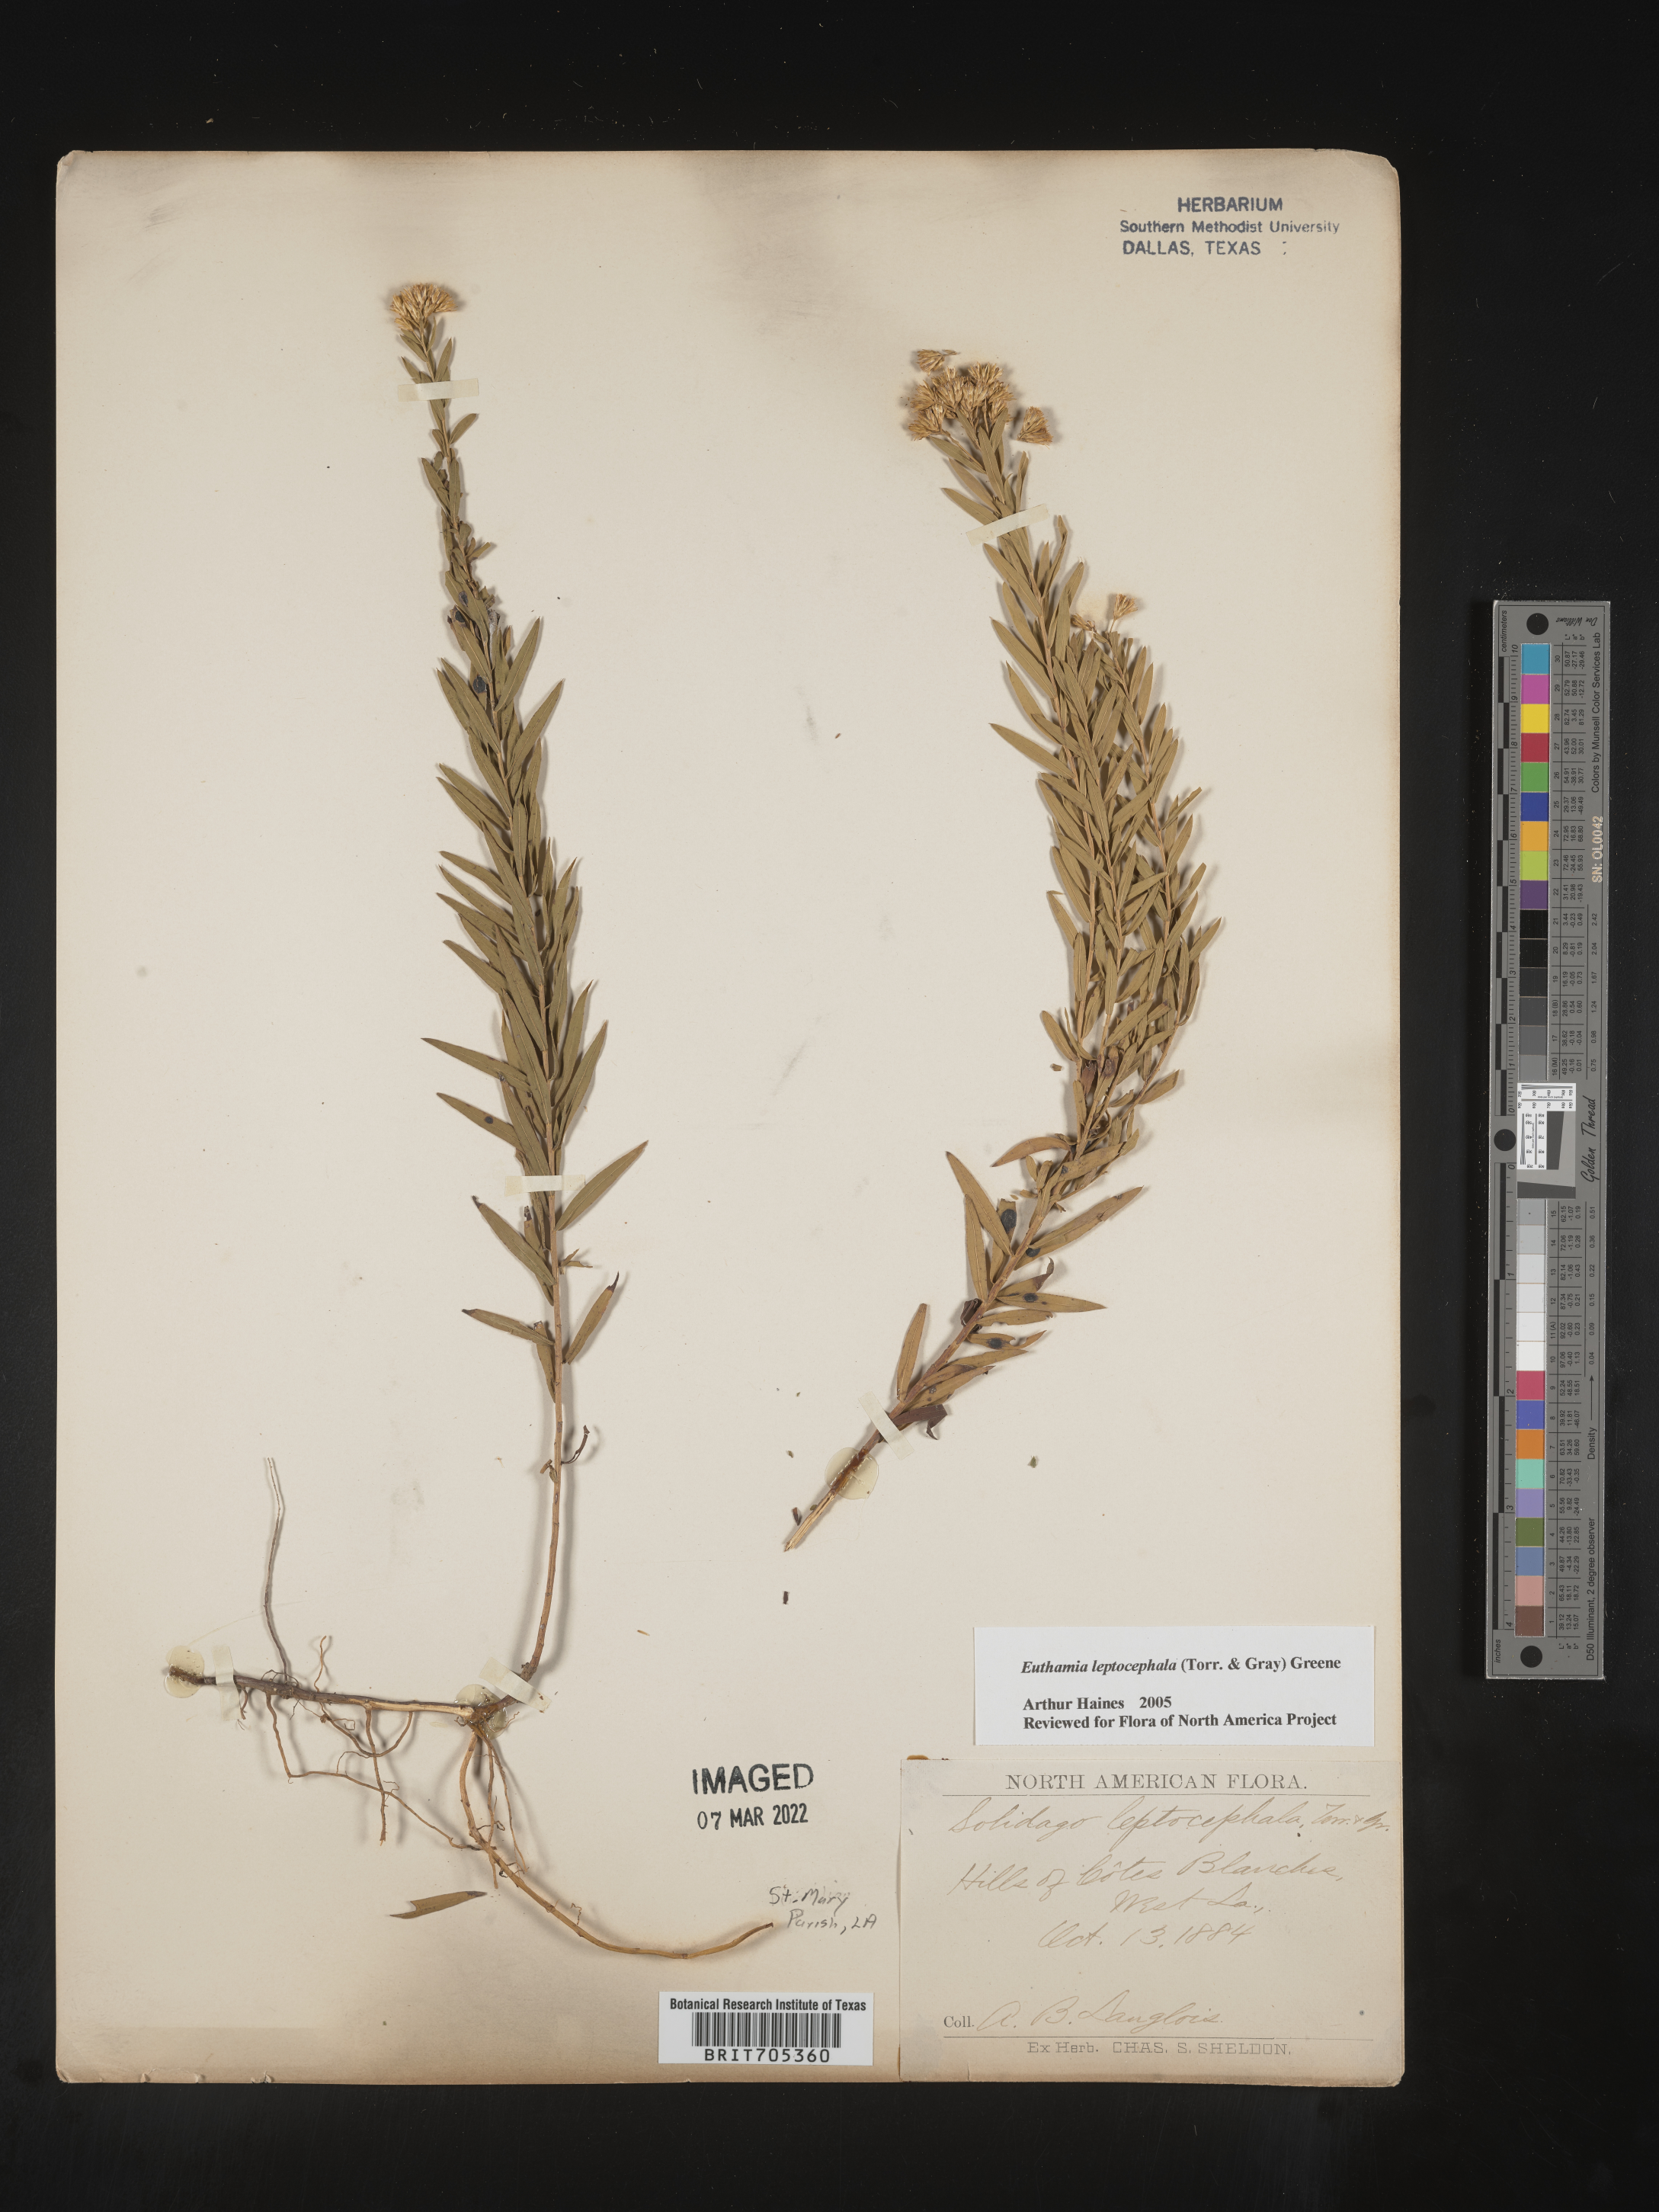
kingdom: Plantae
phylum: Tracheophyta
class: Magnoliopsida
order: Asterales
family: Asteraceae
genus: Euthamia
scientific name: Euthamia leptocephala
